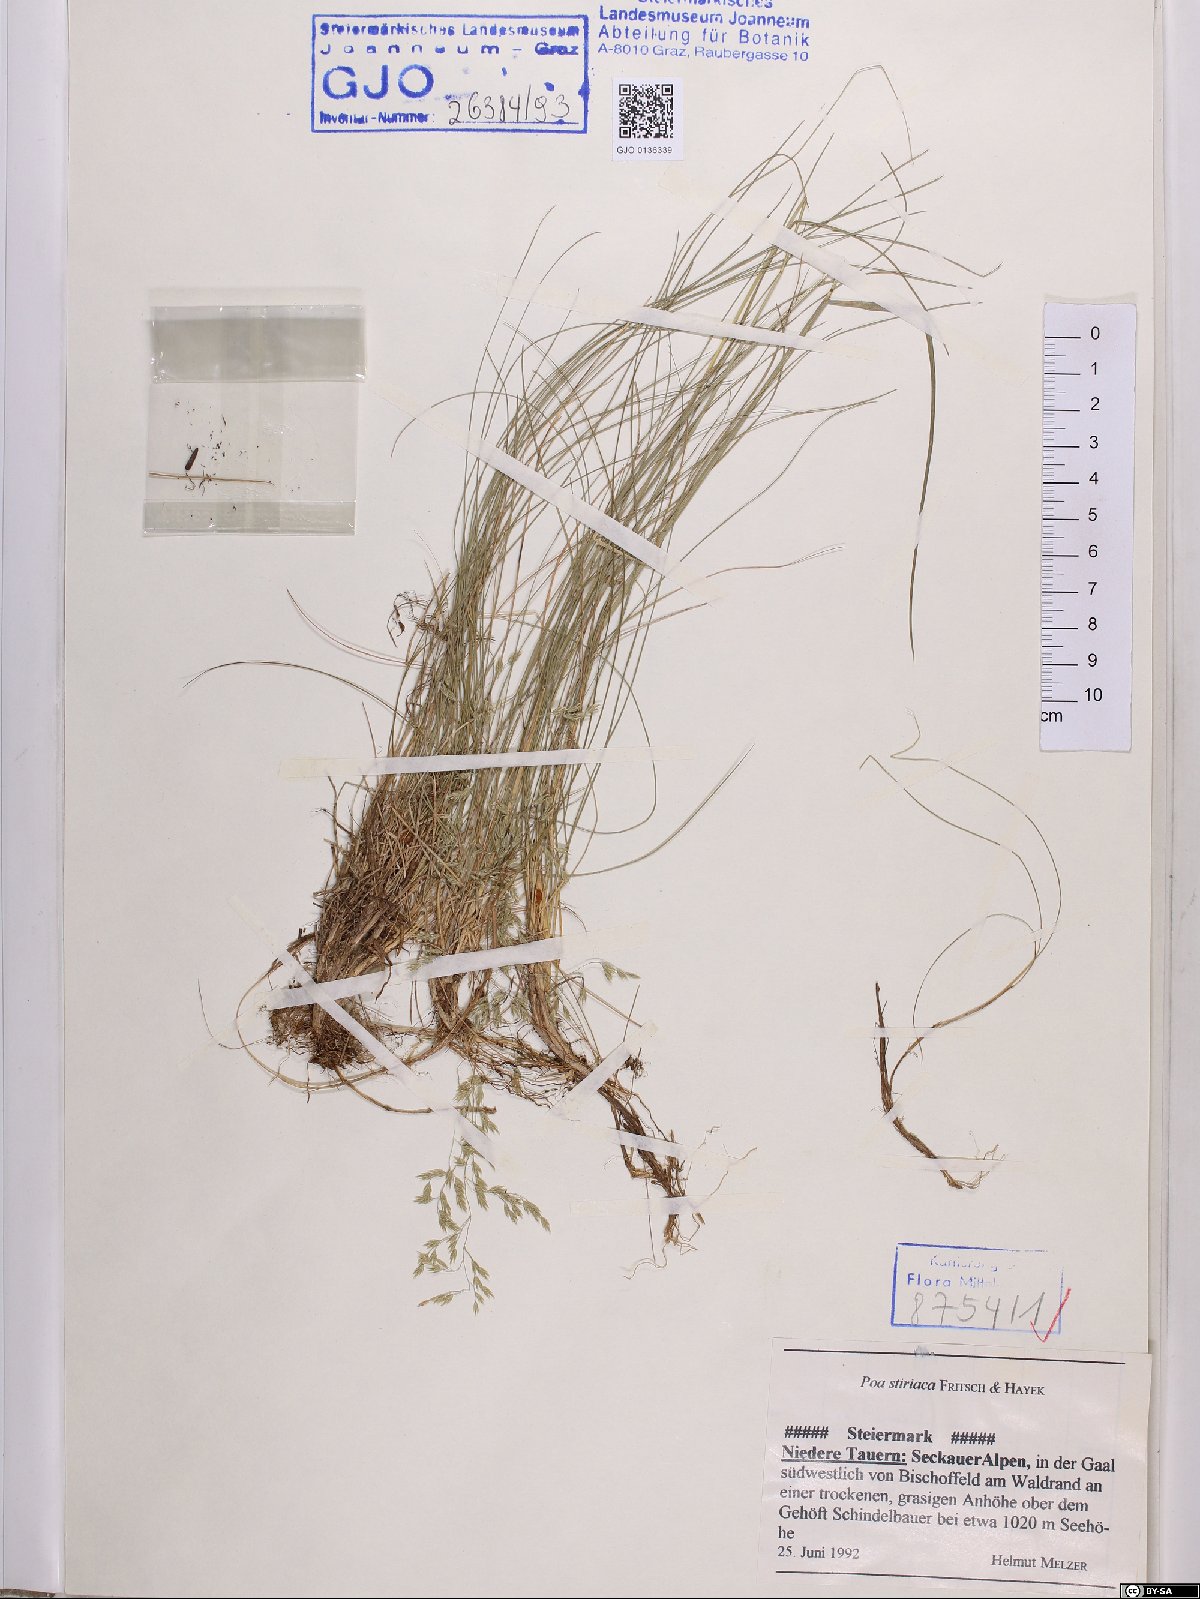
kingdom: Plantae
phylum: Tracheophyta
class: Liliopsida
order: Poales
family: Poaceae
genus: Poa
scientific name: Poa stiriaca
